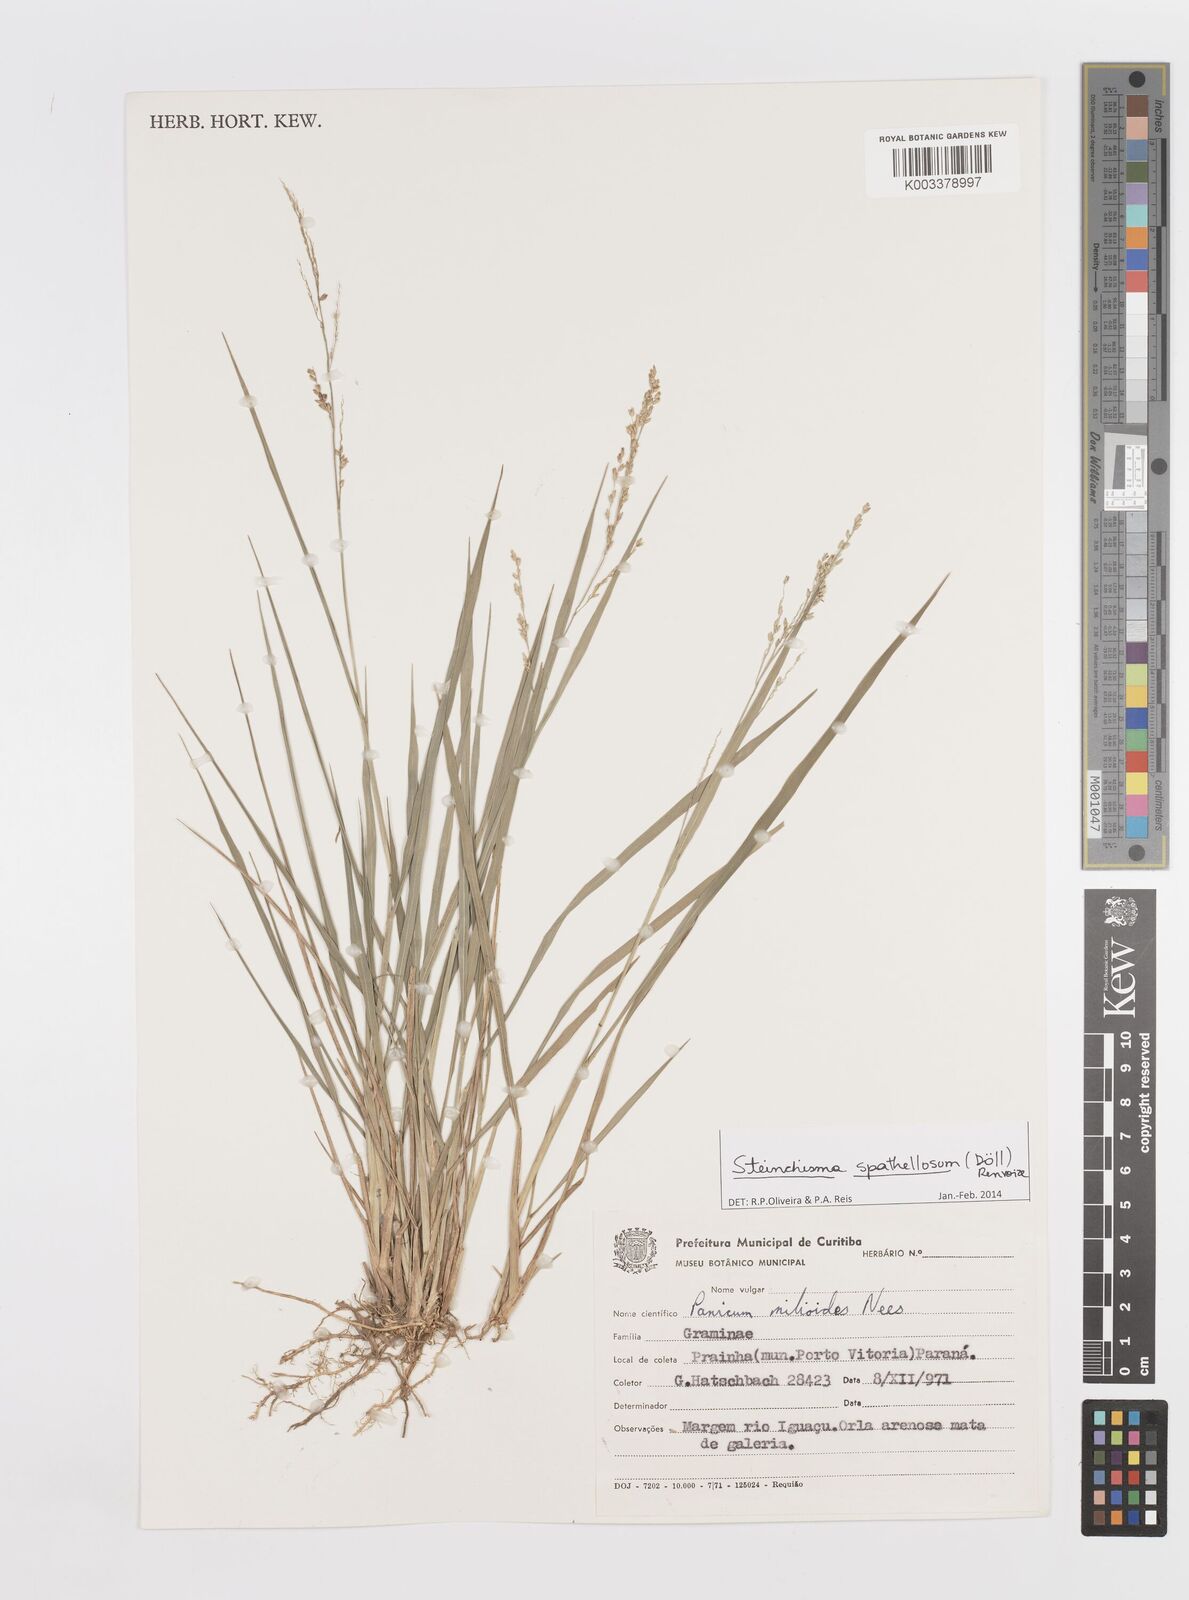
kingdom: Plantae
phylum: Tracheophyta
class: Liliopsida
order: Poales
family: Poaceae
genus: Steinchisma
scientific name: Steinchisma spathellosum
